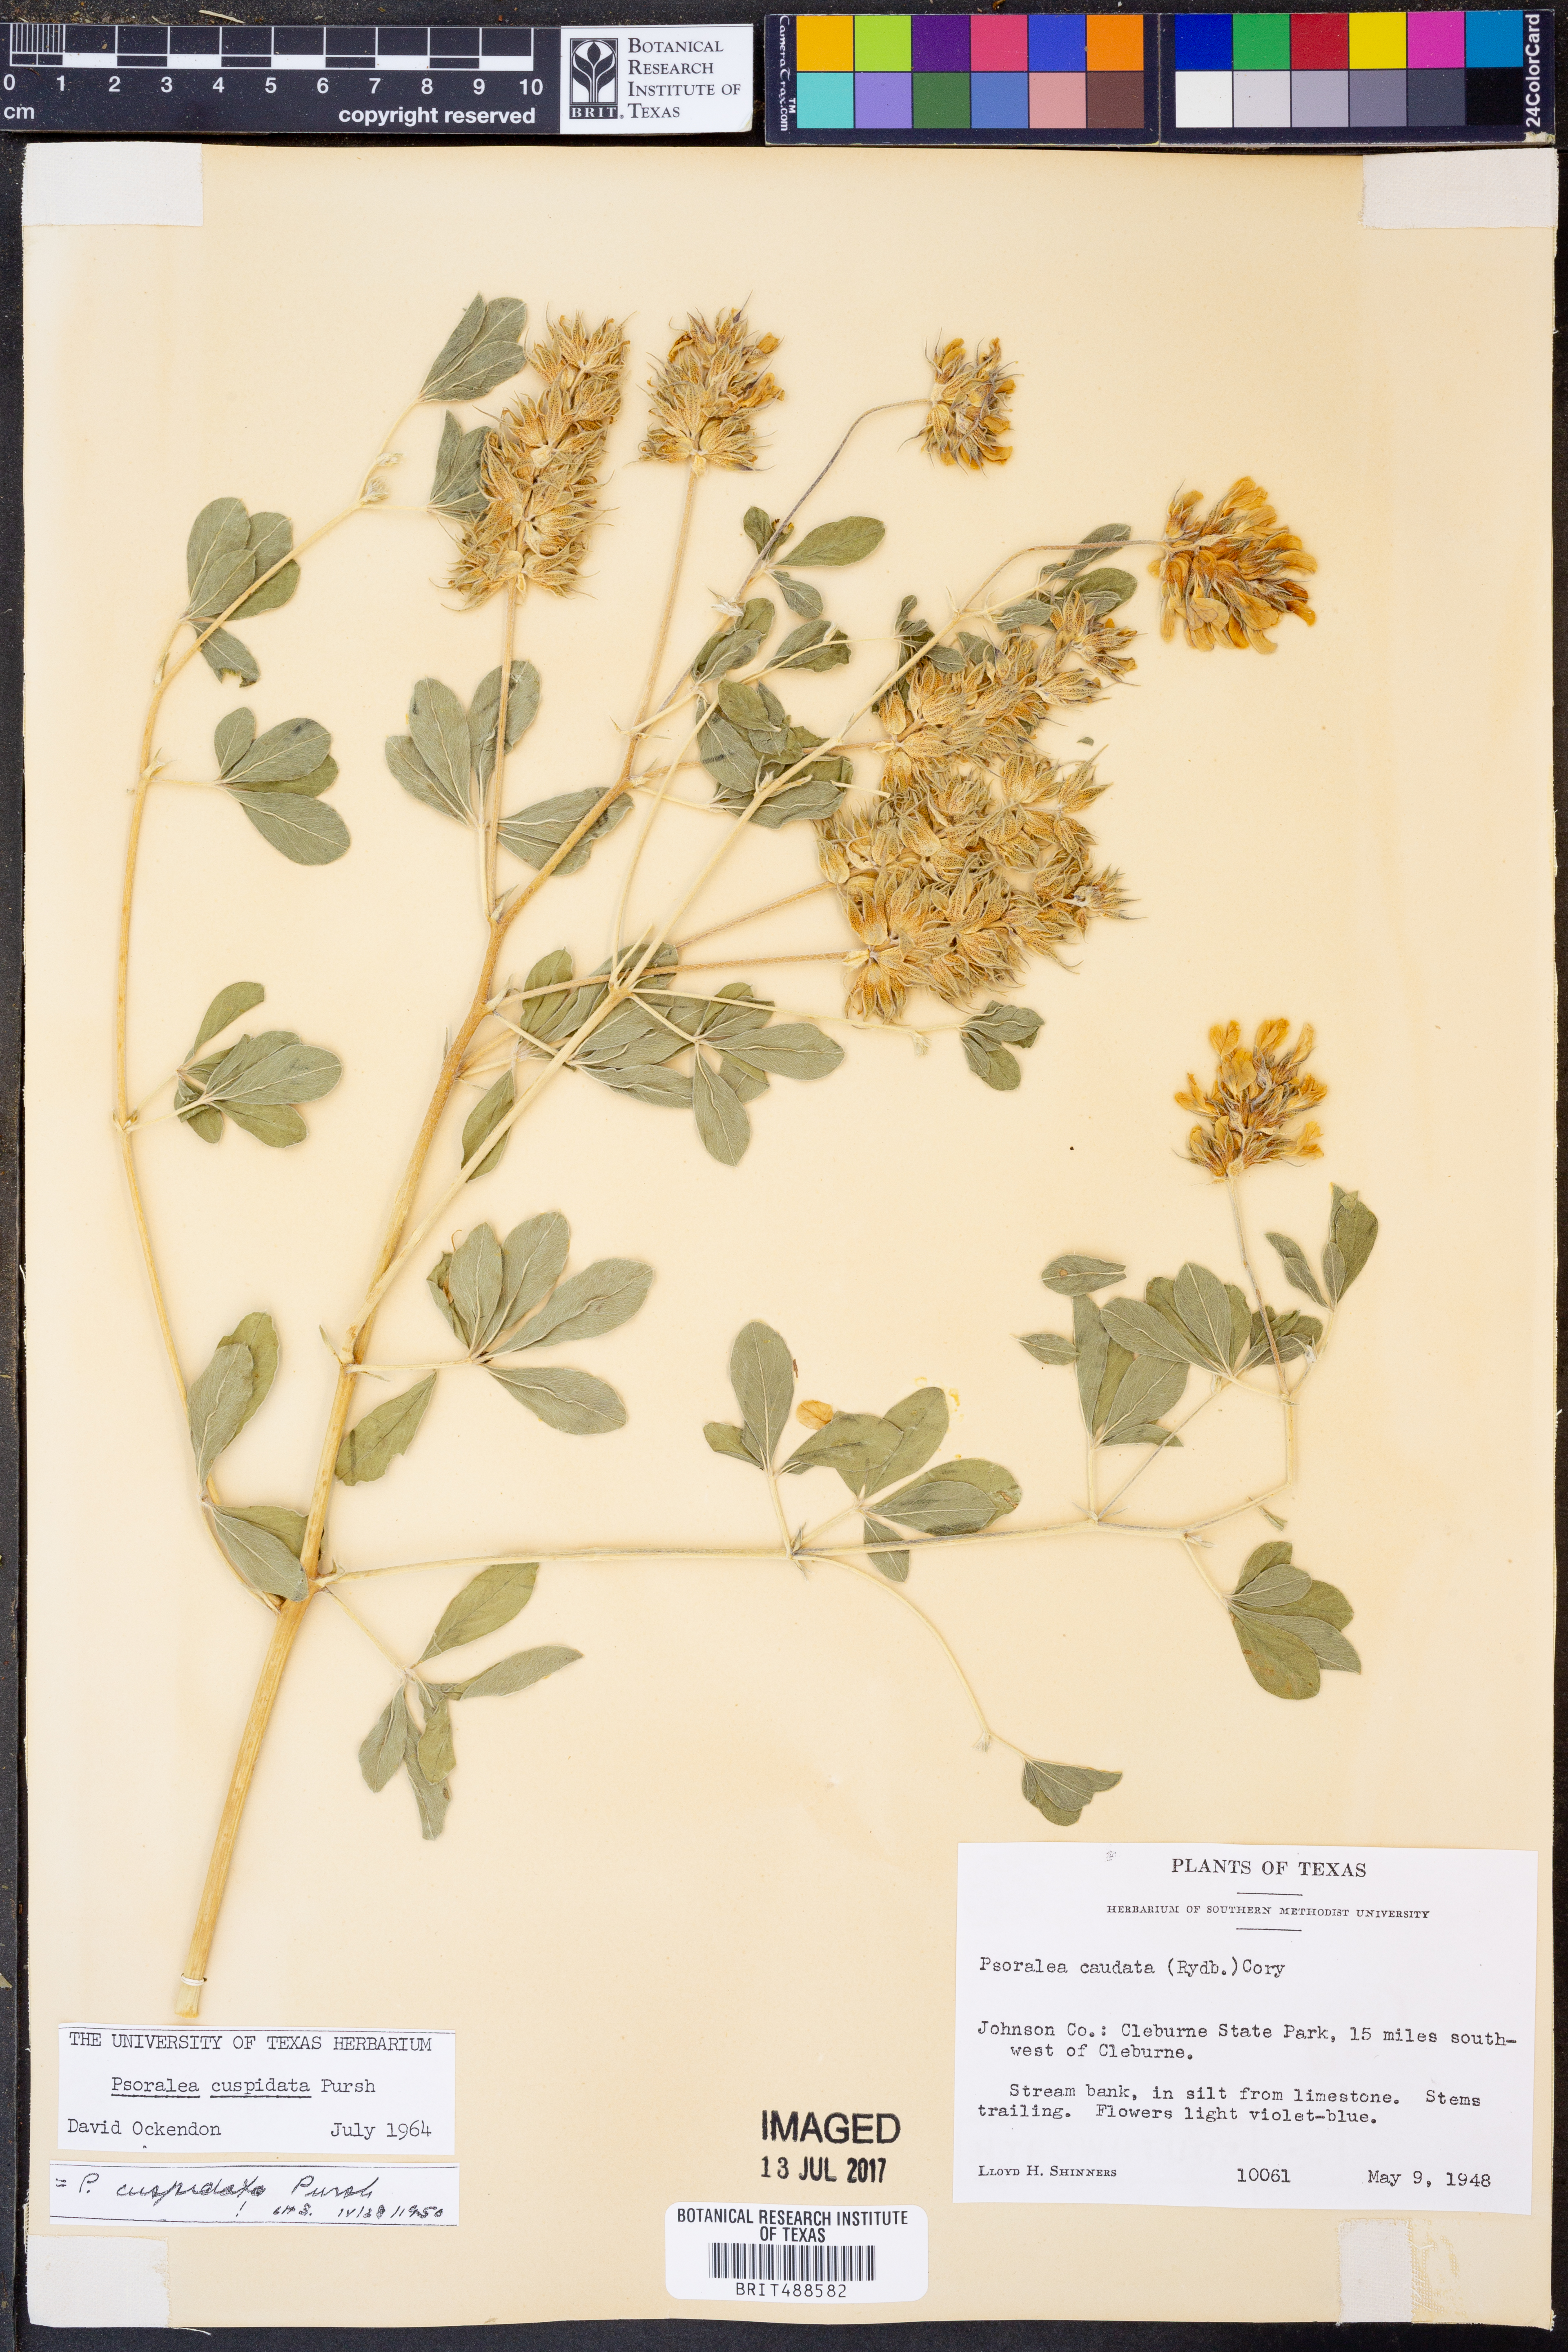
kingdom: Plantae
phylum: Tracheophyta
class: Magnoliopsida
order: Fabales
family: Fabaceae
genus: Pediomelum
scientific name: Pediomelum cuspidatum
